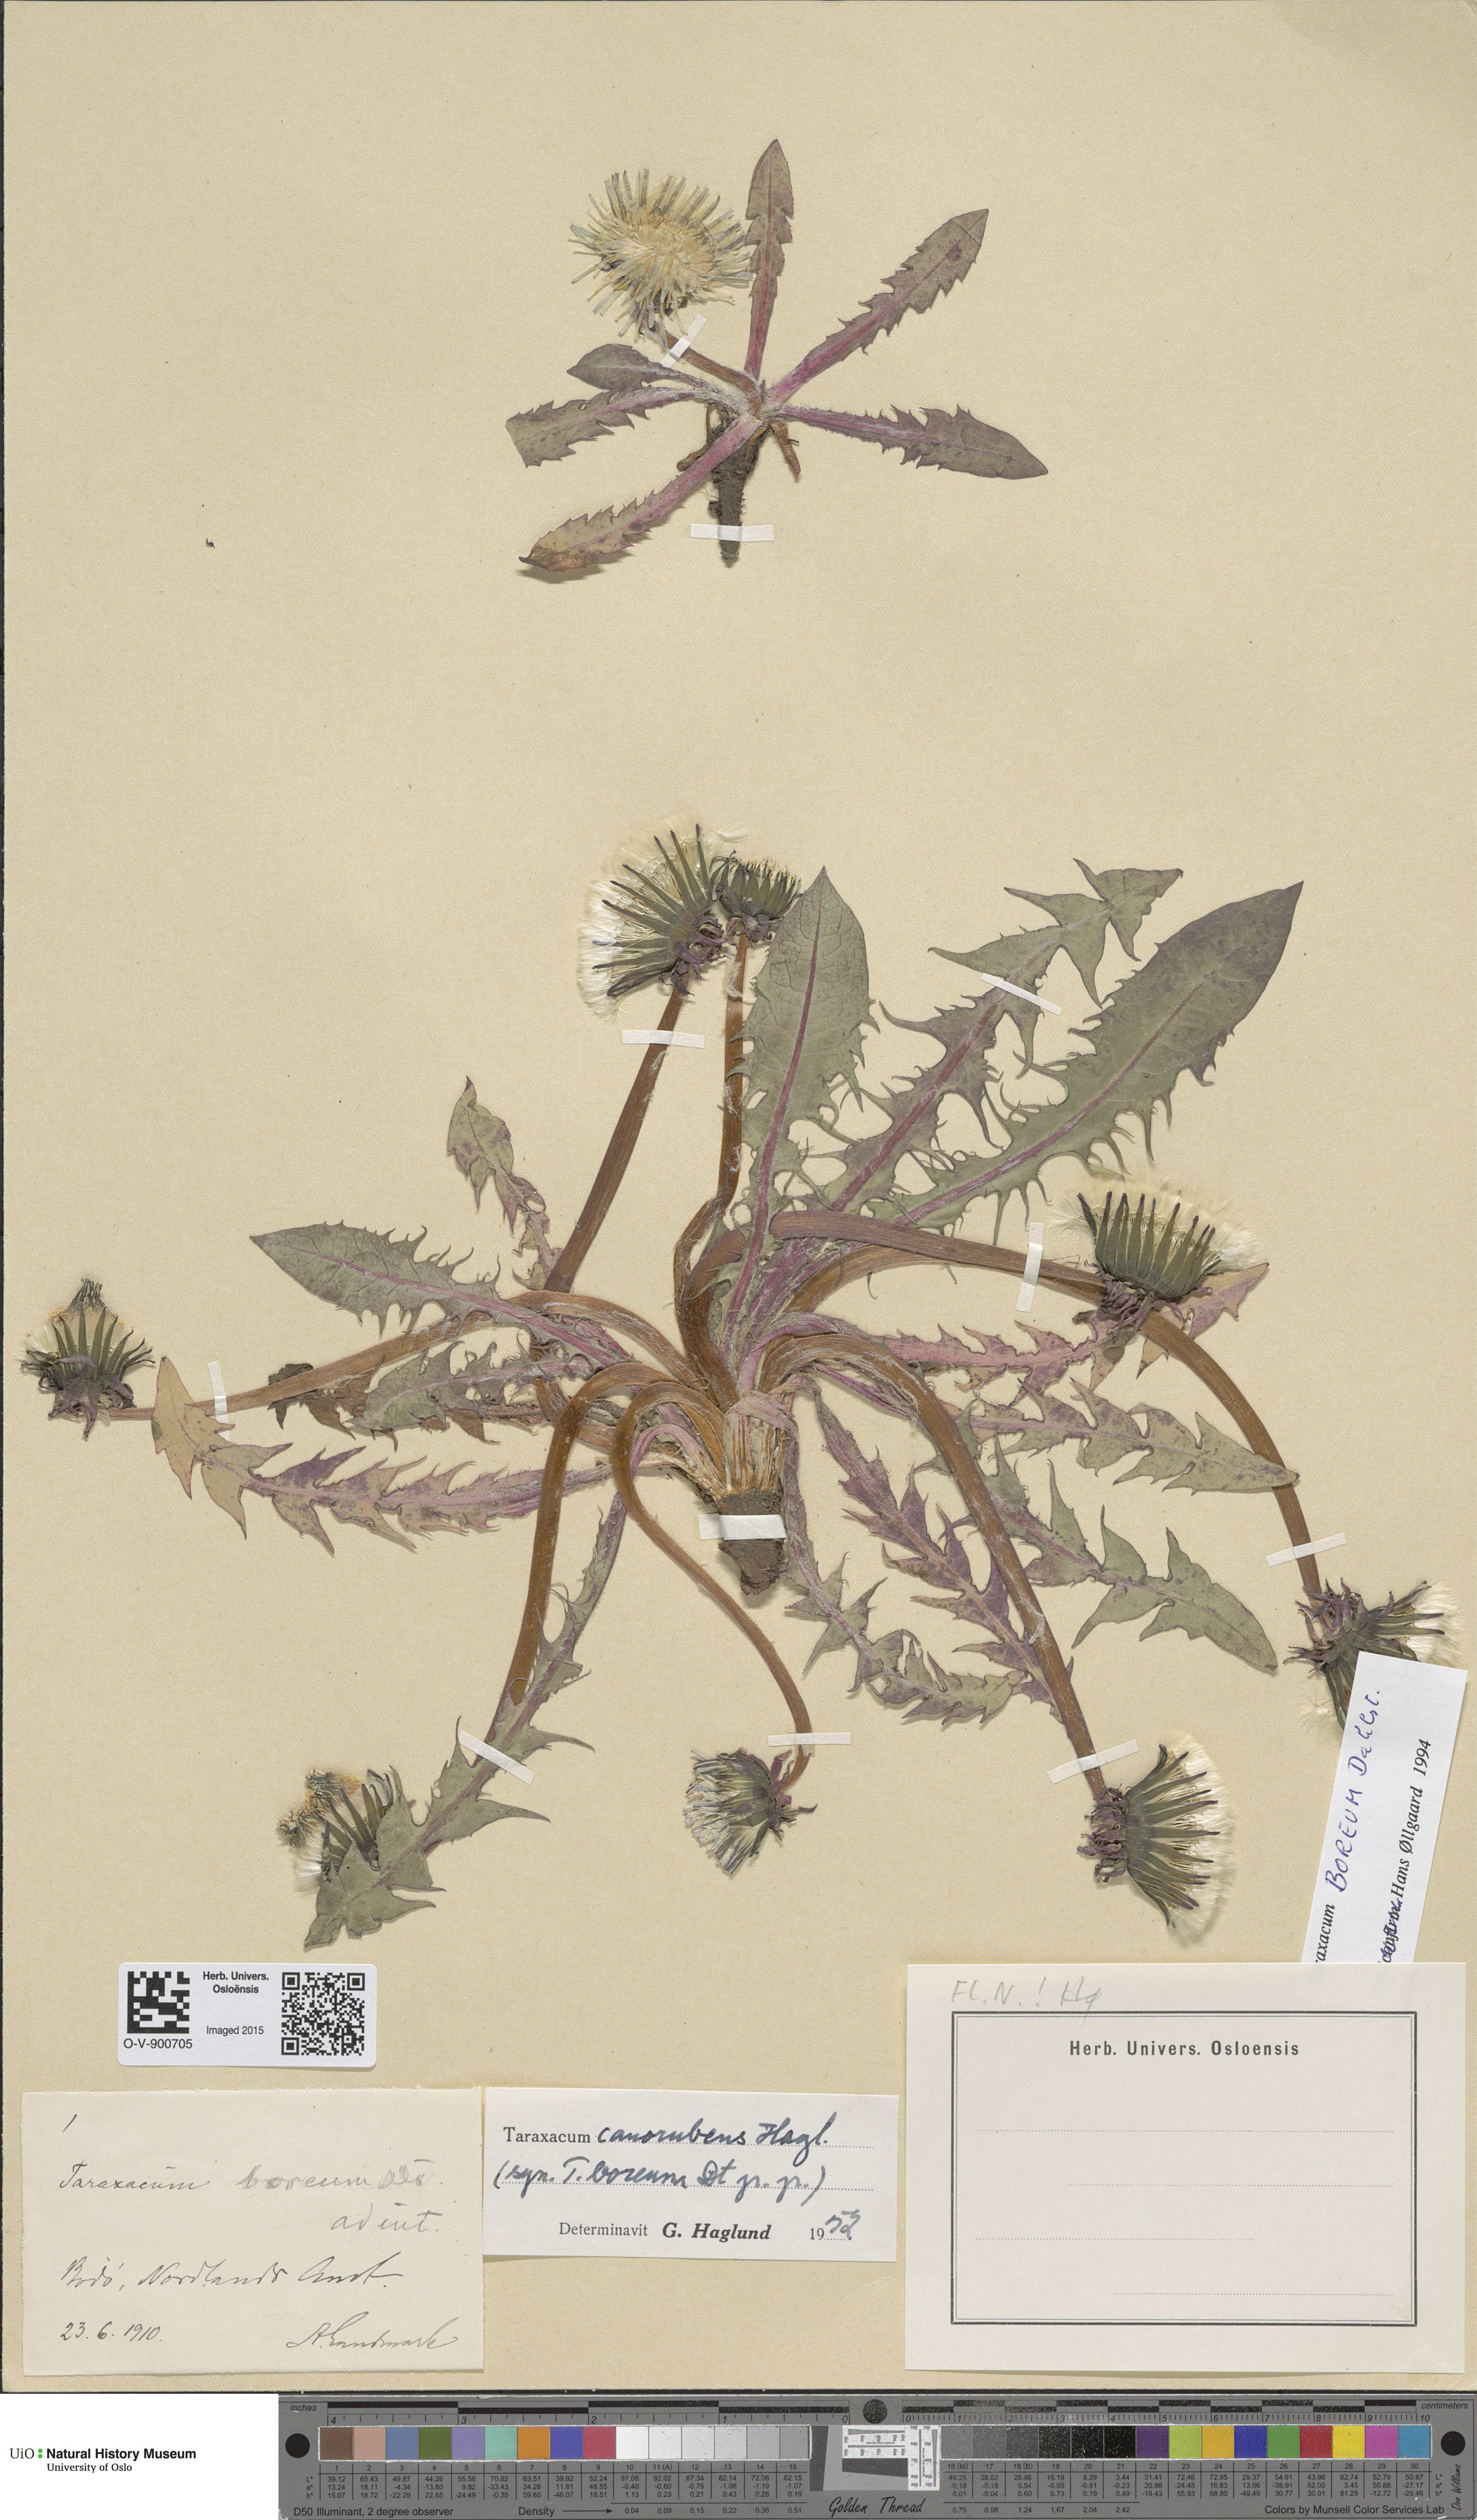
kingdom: Plantae
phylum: Tracheophyta
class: Magnoliopsida
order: Asterales
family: Asteraceae
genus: Taraxacum
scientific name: Taraxacum septentrionale
